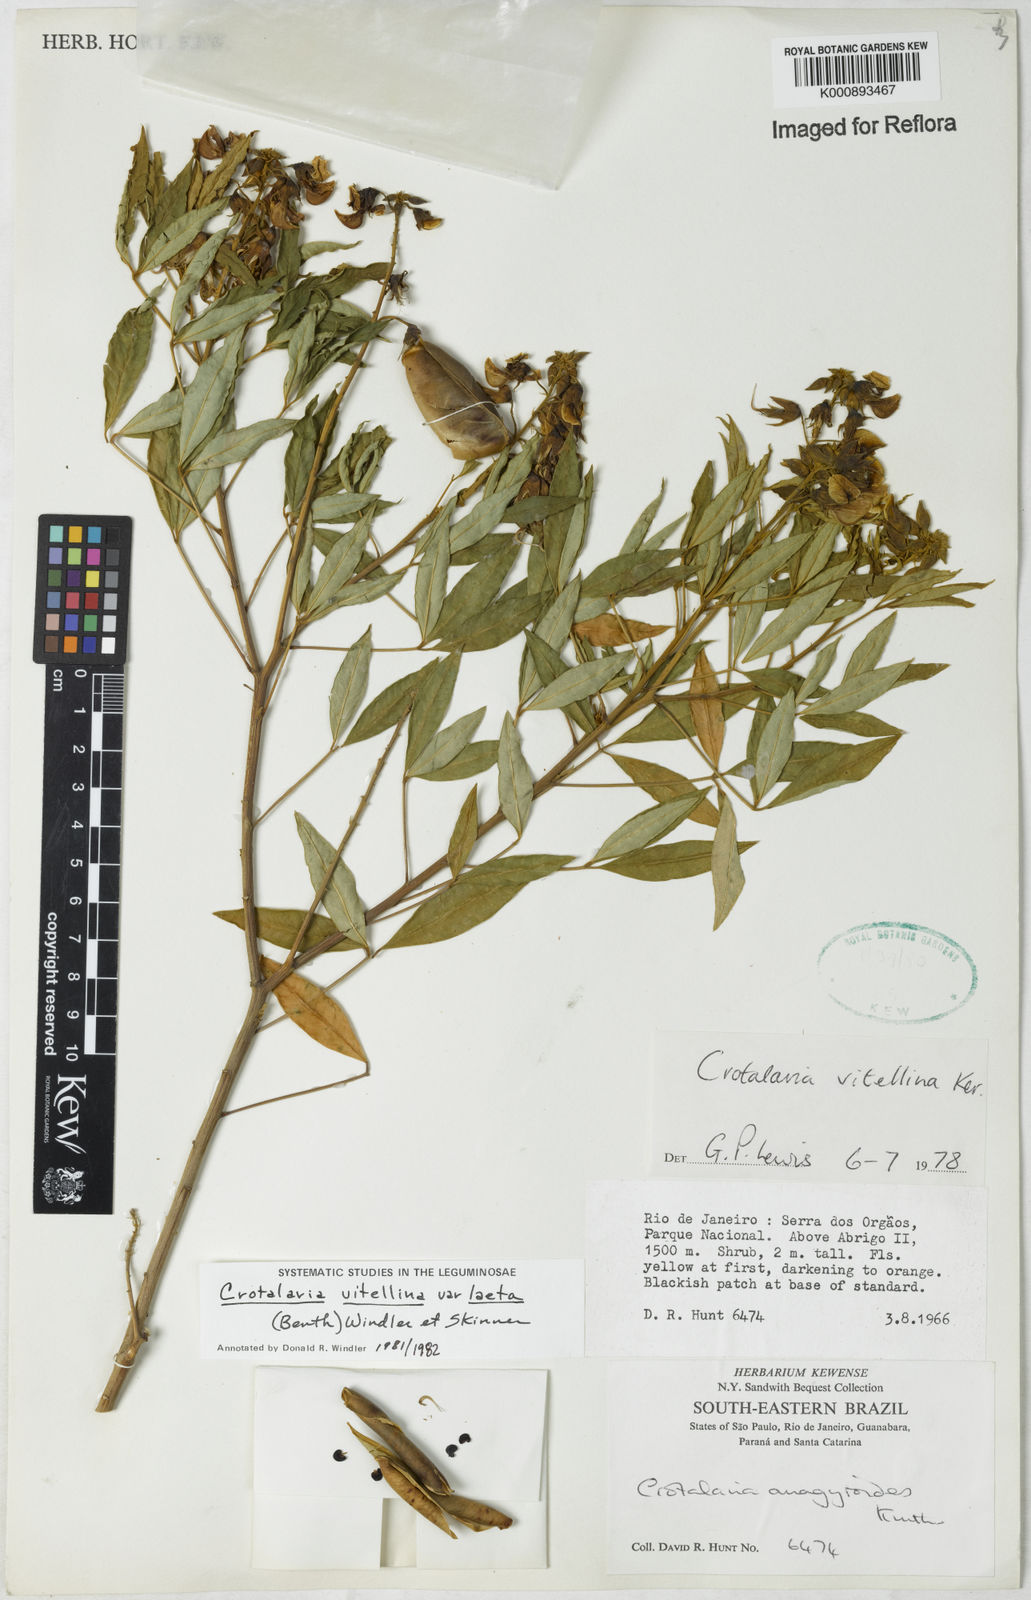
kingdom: Plantae
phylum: Tracheophyta
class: Magnoliopsida
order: Fabales
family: Fabaceae
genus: Crotalaria
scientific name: Crotalaria laeta
